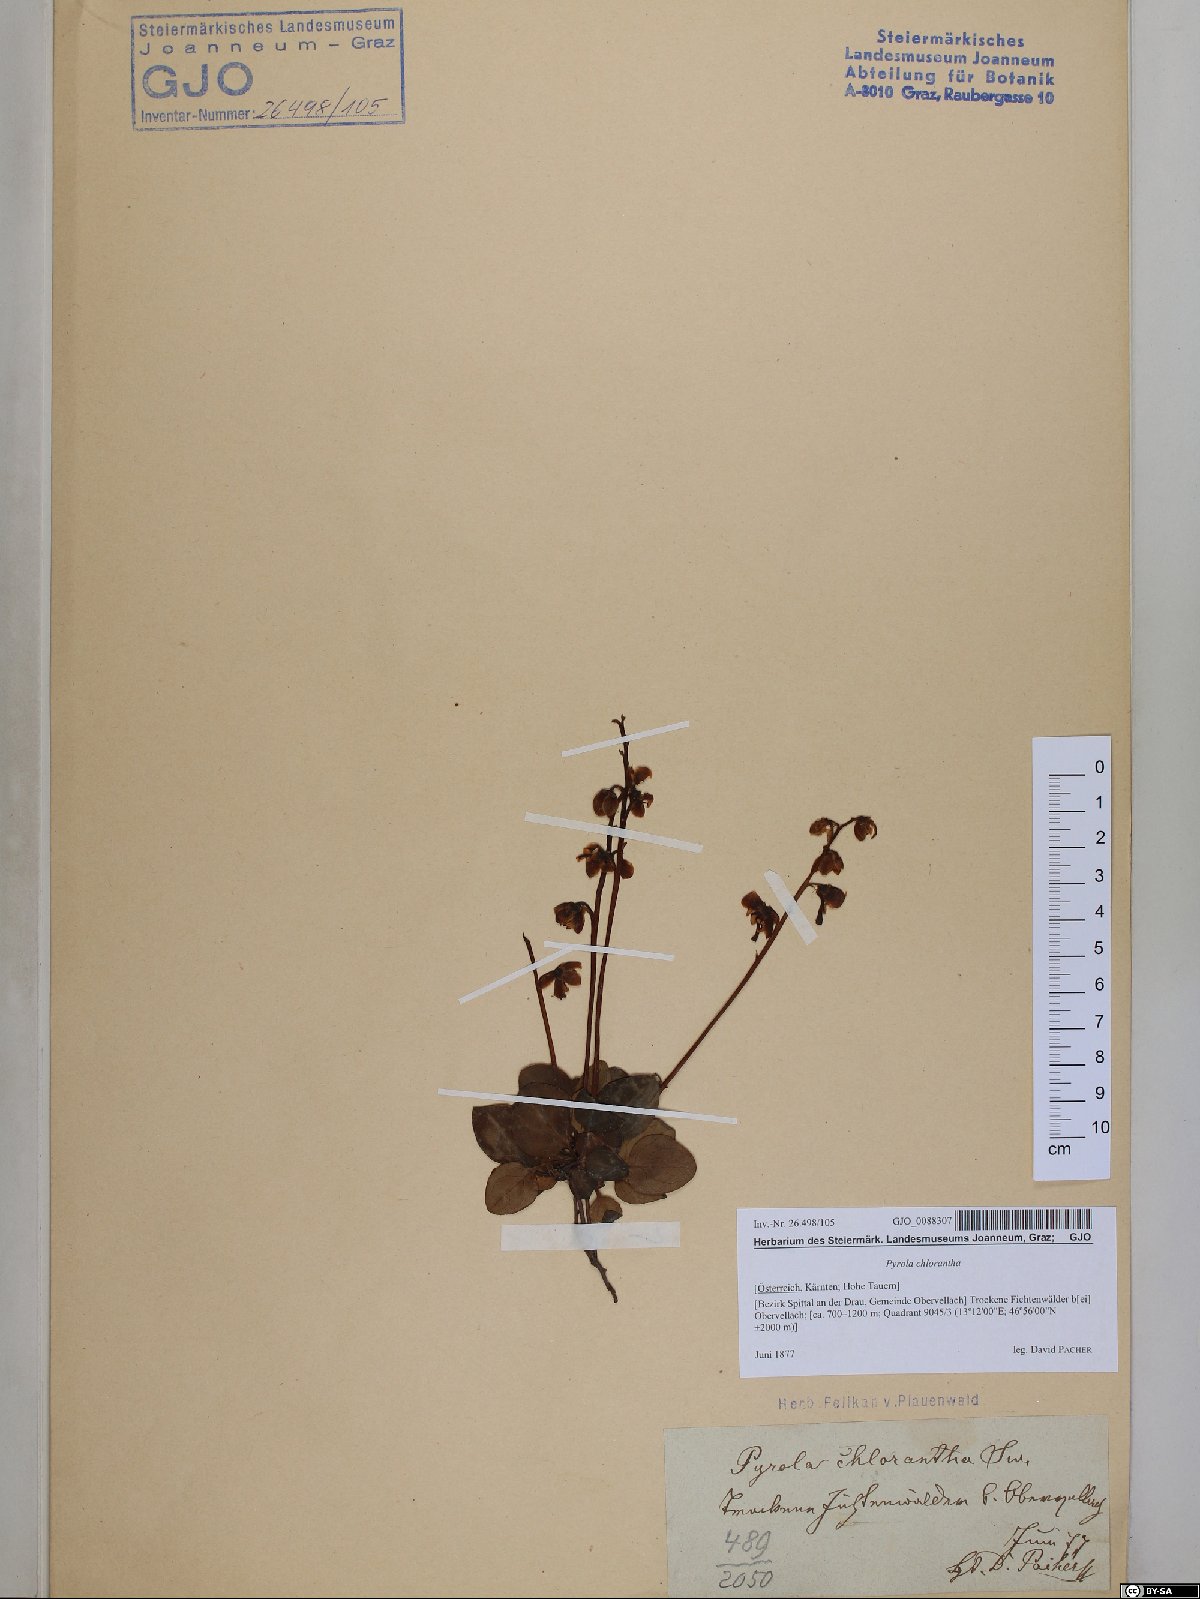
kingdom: Plantae
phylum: Tracheophyta
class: Magnoliopsida
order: Ericales
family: Ericaceae
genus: Pyrola
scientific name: Pyrola chlorantha
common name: Green wintergreen
